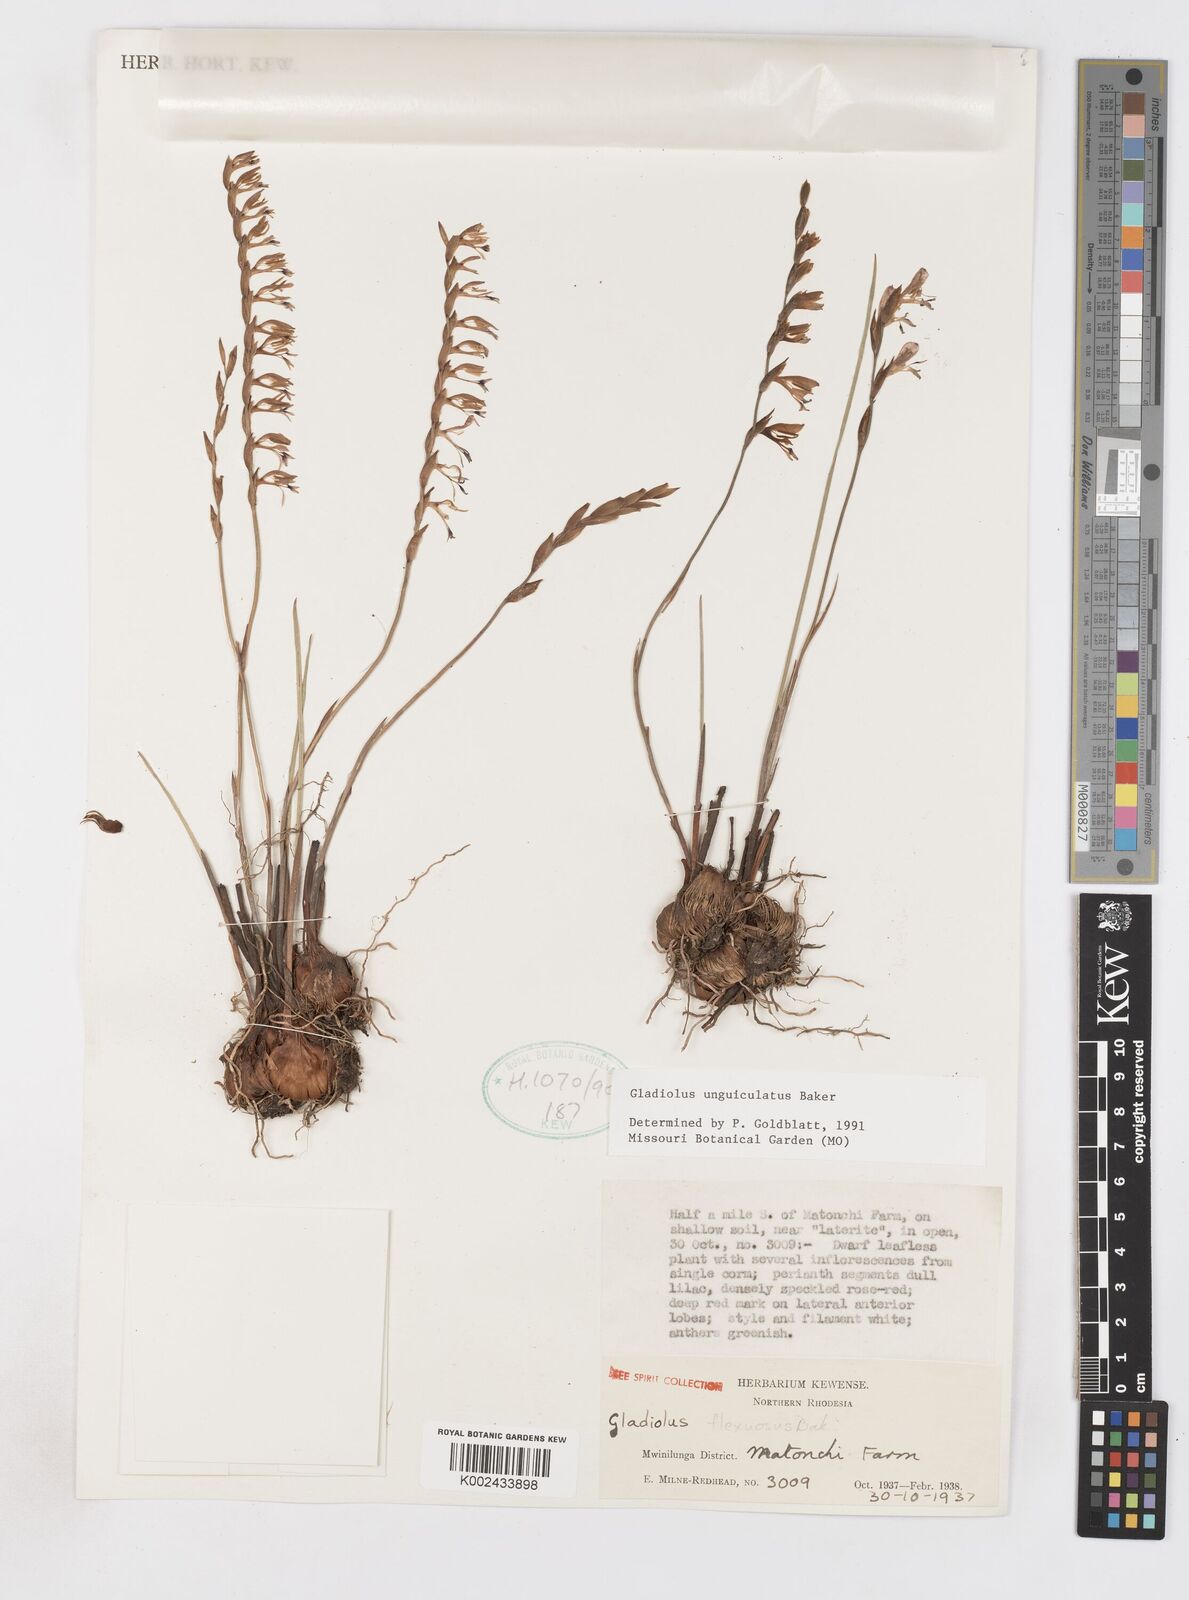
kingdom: Plantae
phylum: Tracheophyta
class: Liliopsida
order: Asparagales
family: Iridaceae
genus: Gladiolus
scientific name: Gladiolus unguiculatus
